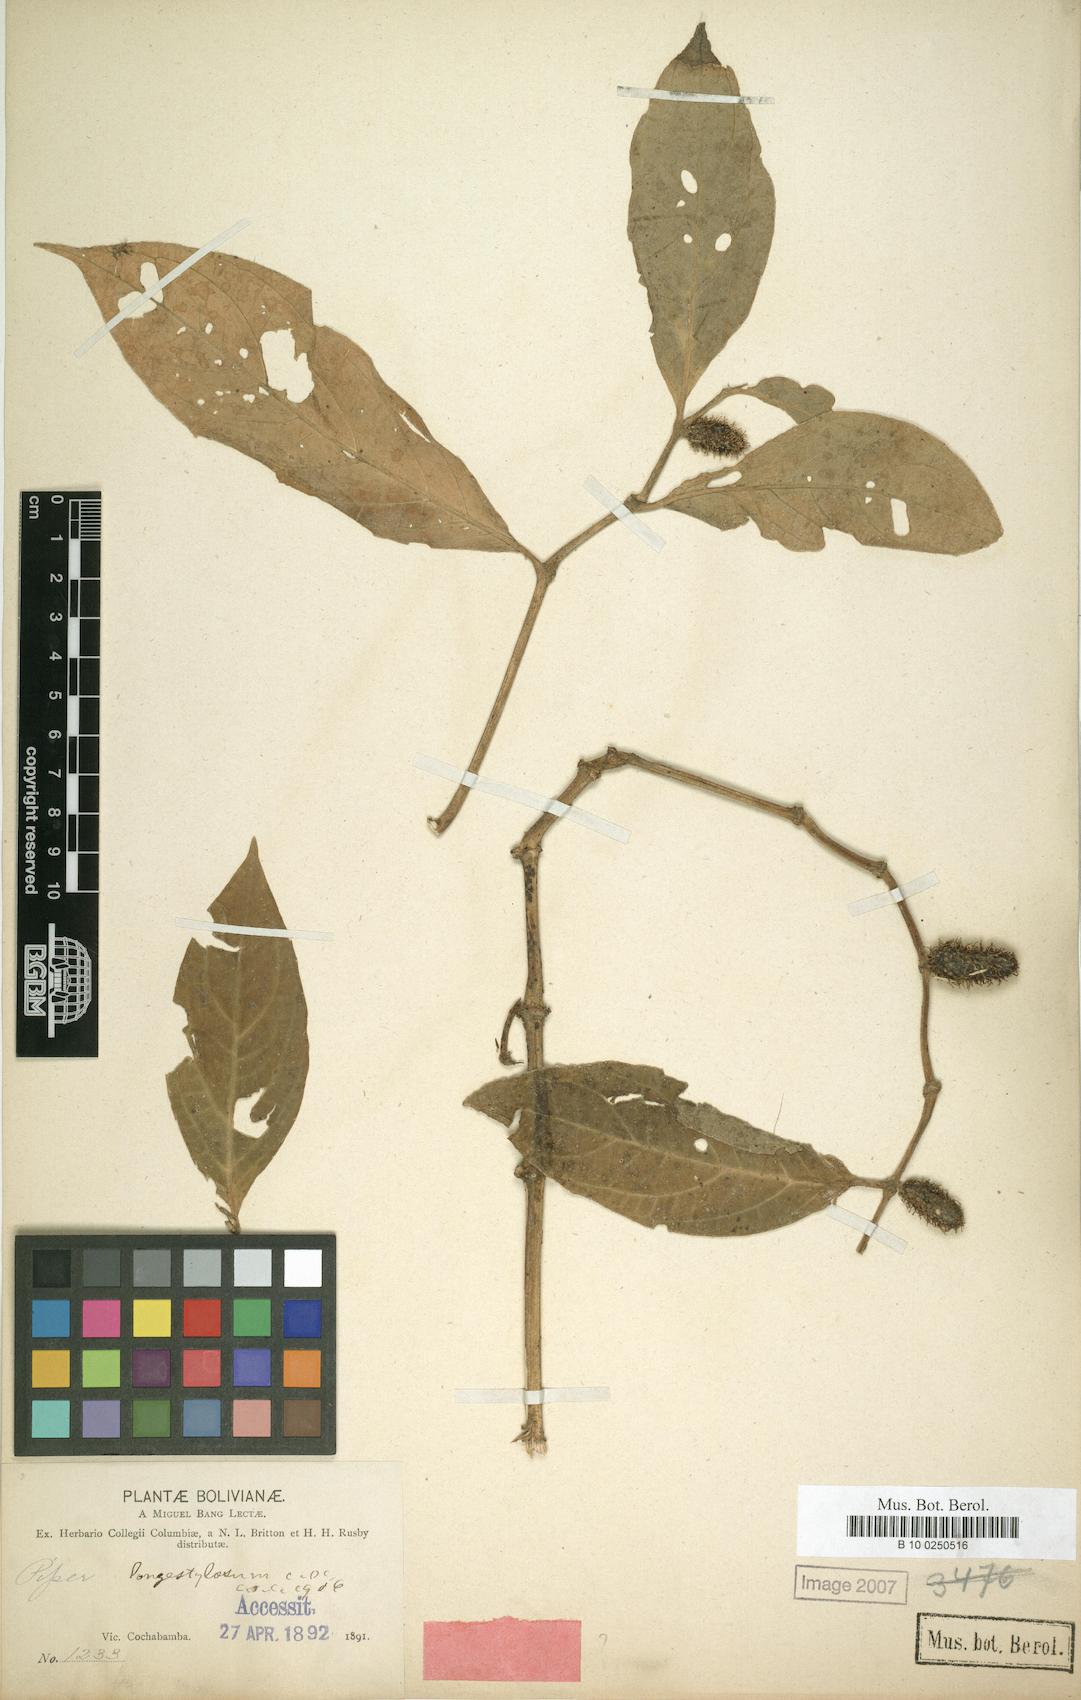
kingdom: Plantae
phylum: Tracheophyta
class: Magnoliopsida
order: Piperales
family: Piperaceae
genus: Piper
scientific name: Piper longestylosum
